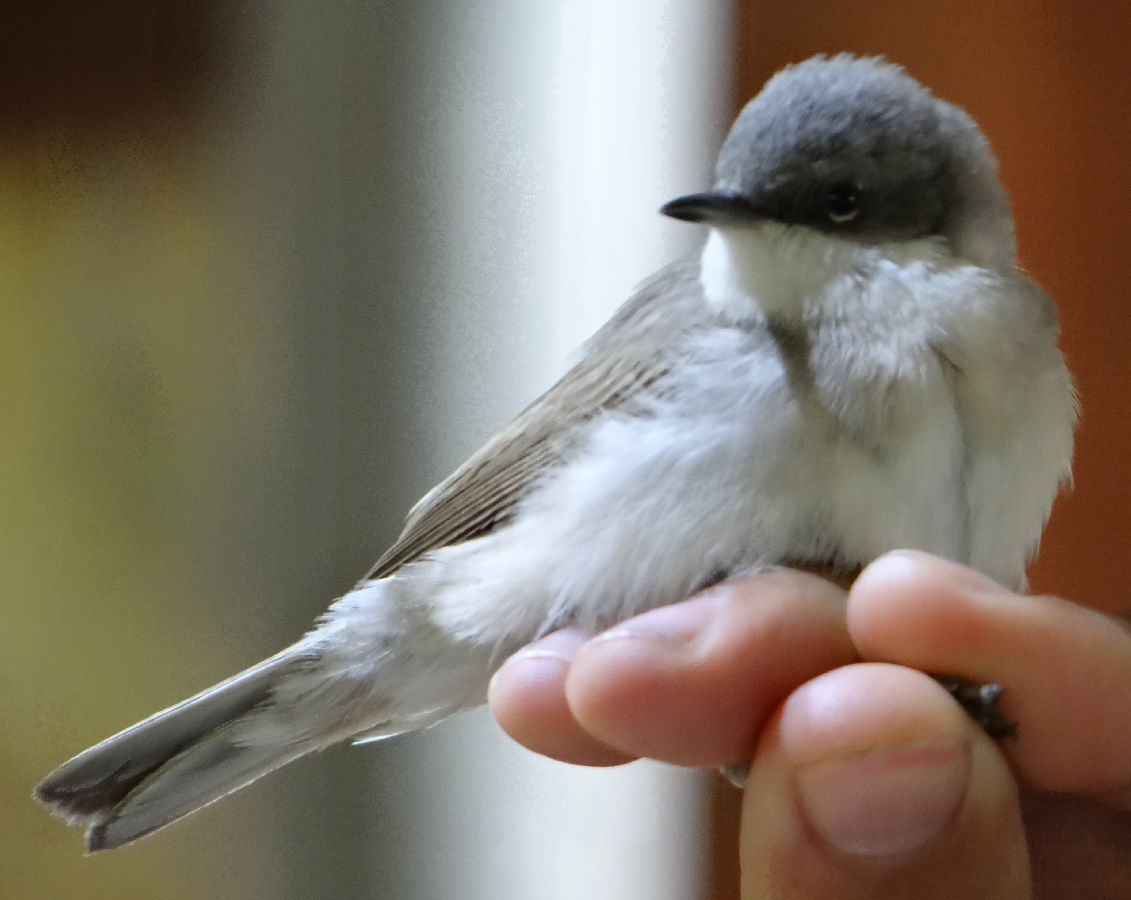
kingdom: Animalia
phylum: Chordata
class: Aves
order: Passeriformes
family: Sylviidae
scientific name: Sylviidae
